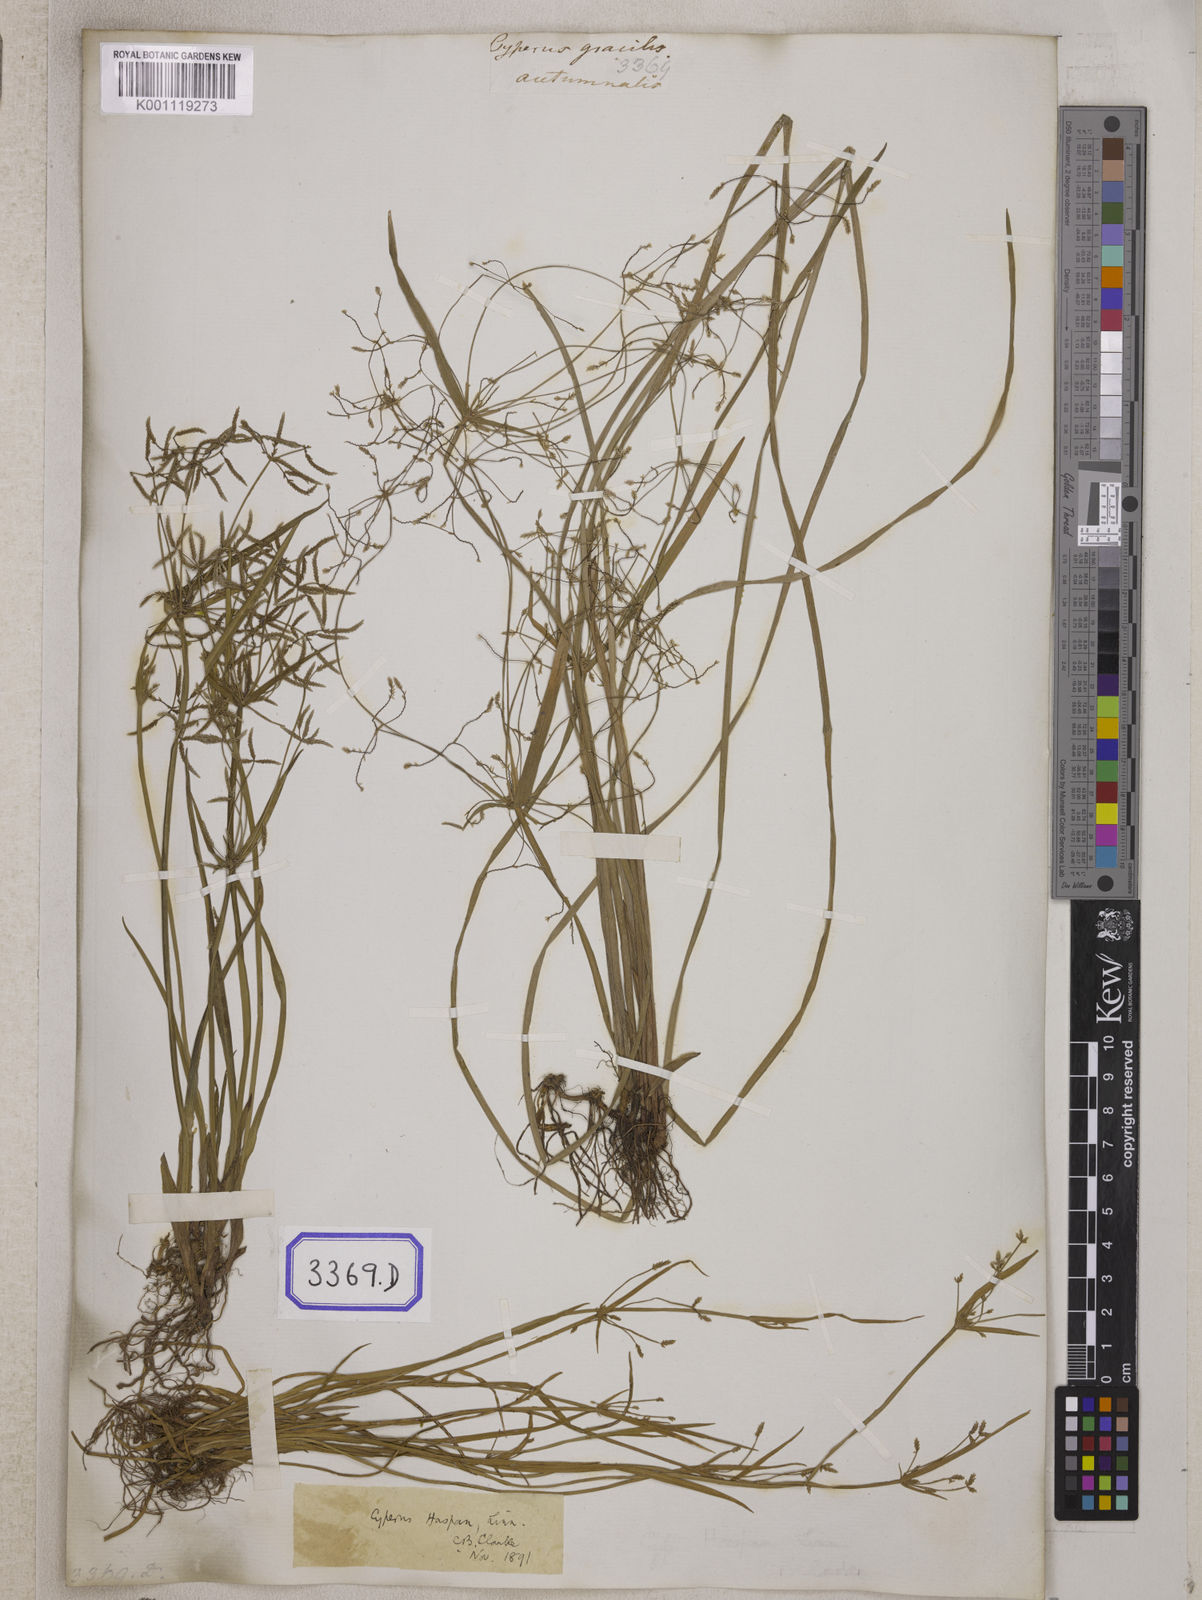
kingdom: Plantae
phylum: Tracheophyta
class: Liliopsida
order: Poales
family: Cyperaceae
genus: Cyperus
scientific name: Cyperus
